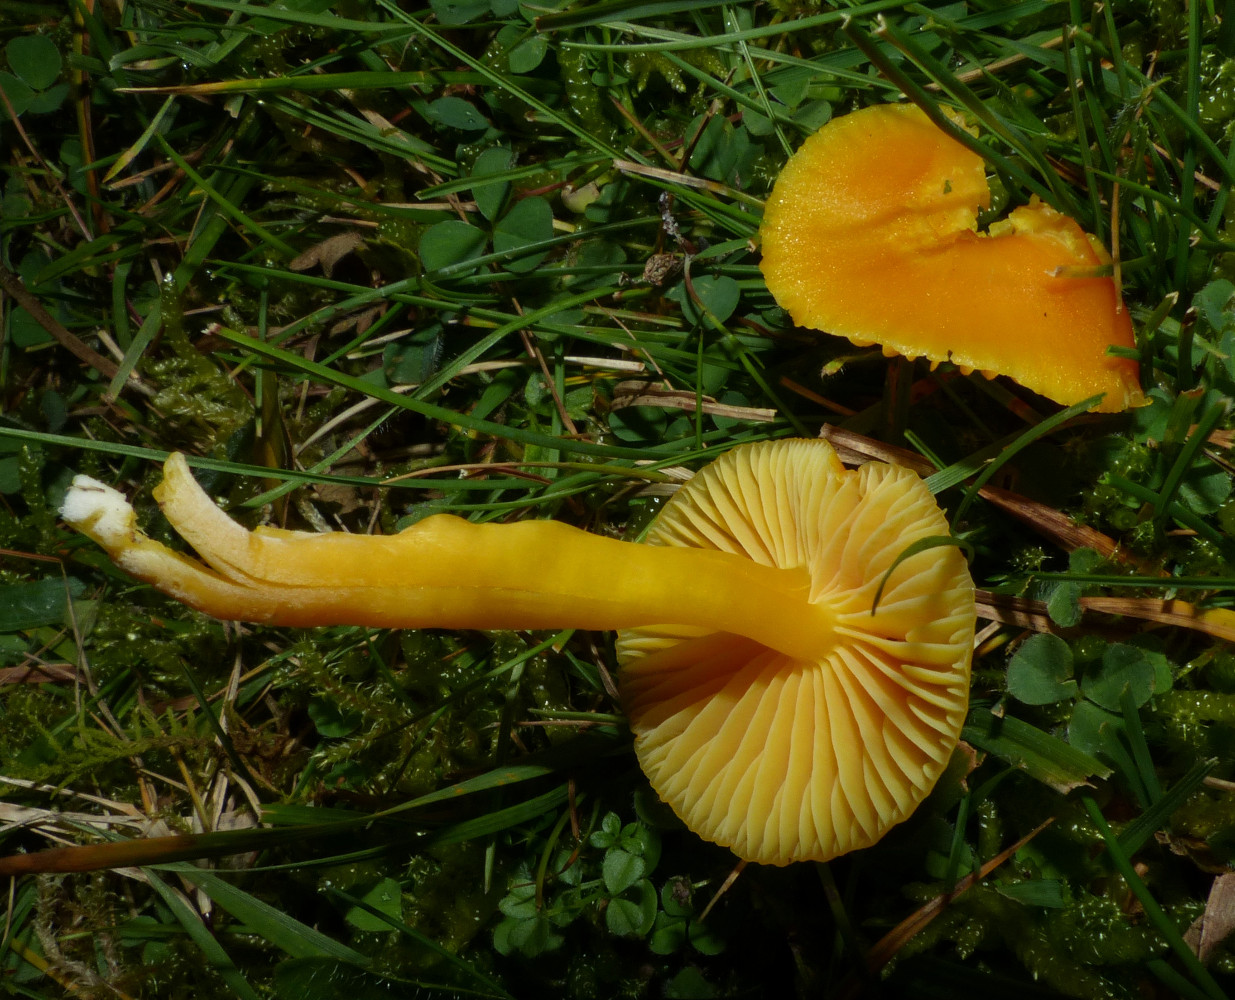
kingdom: Fungi
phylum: Basidiomycota
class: Agaricomycetes
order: Agaricales
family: Hygrophoraceae
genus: Hygrocybe
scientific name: Hygrocybe ceracea
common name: voksgul vokshat
